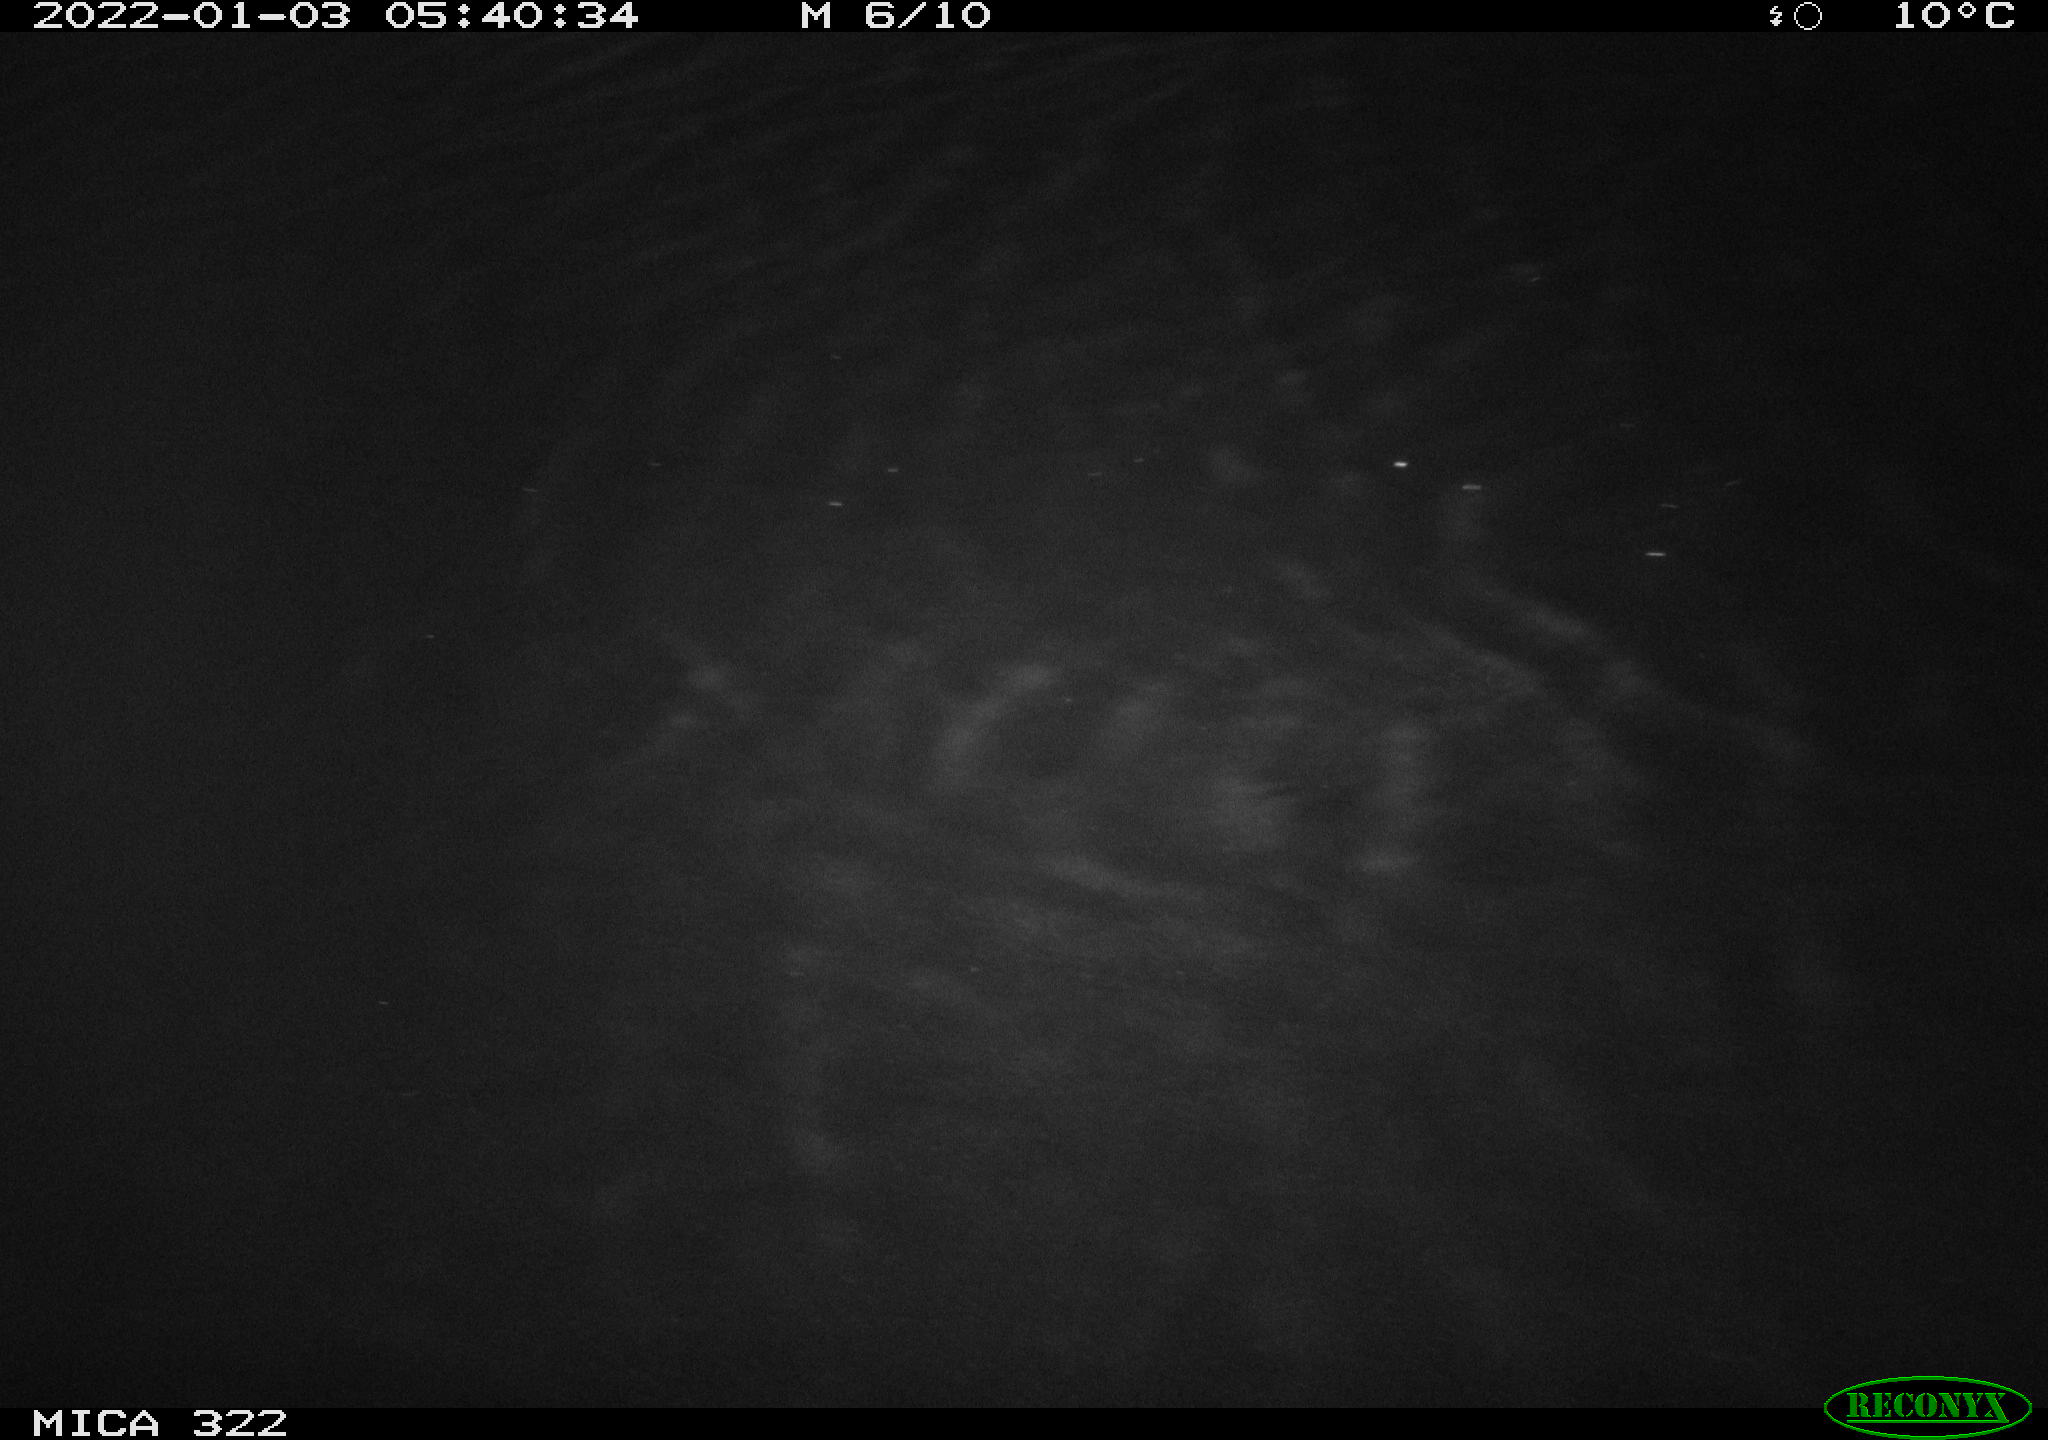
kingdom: Animalia
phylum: Chordata
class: Mammalia
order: Rodentia
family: Muridae
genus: Rattus
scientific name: Rattus norvegicus
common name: Brown rat
